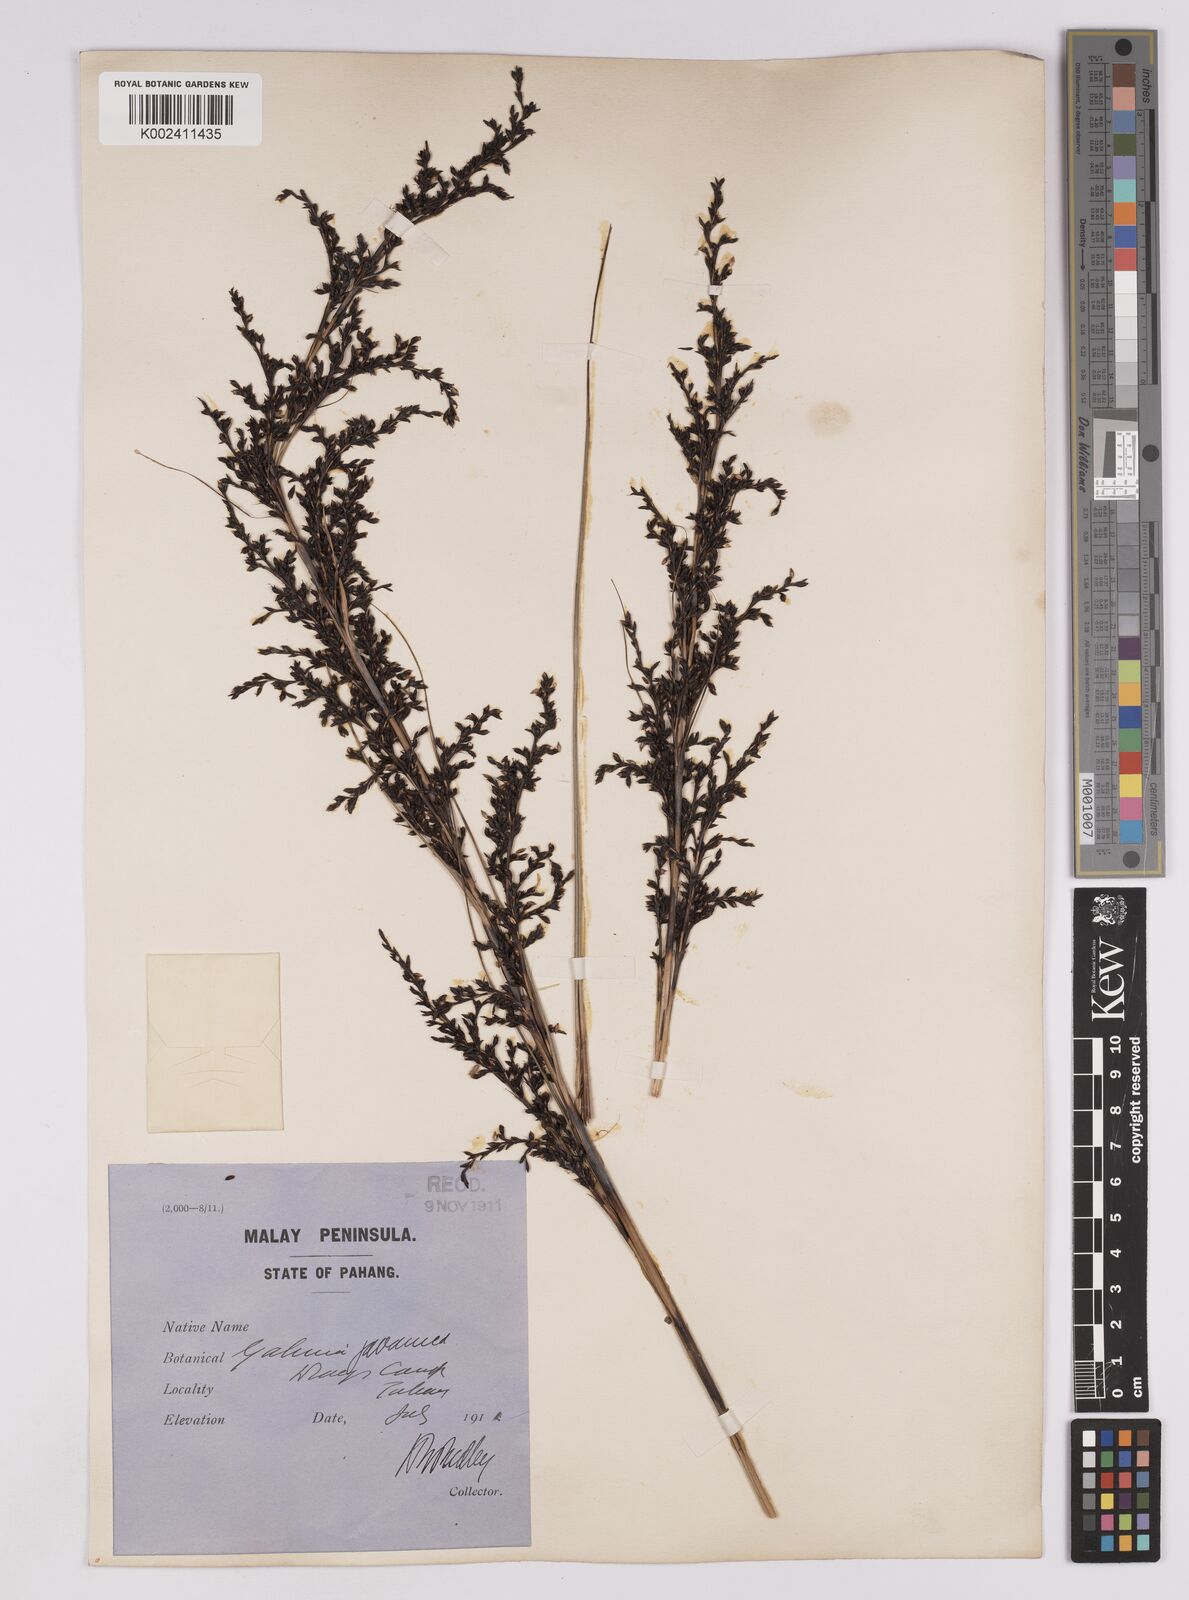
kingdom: Plantae
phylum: Tracheophyta
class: Liliopsida
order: Poales
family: Cyperaceae
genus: Gahnia
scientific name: Gahnia baniensis
